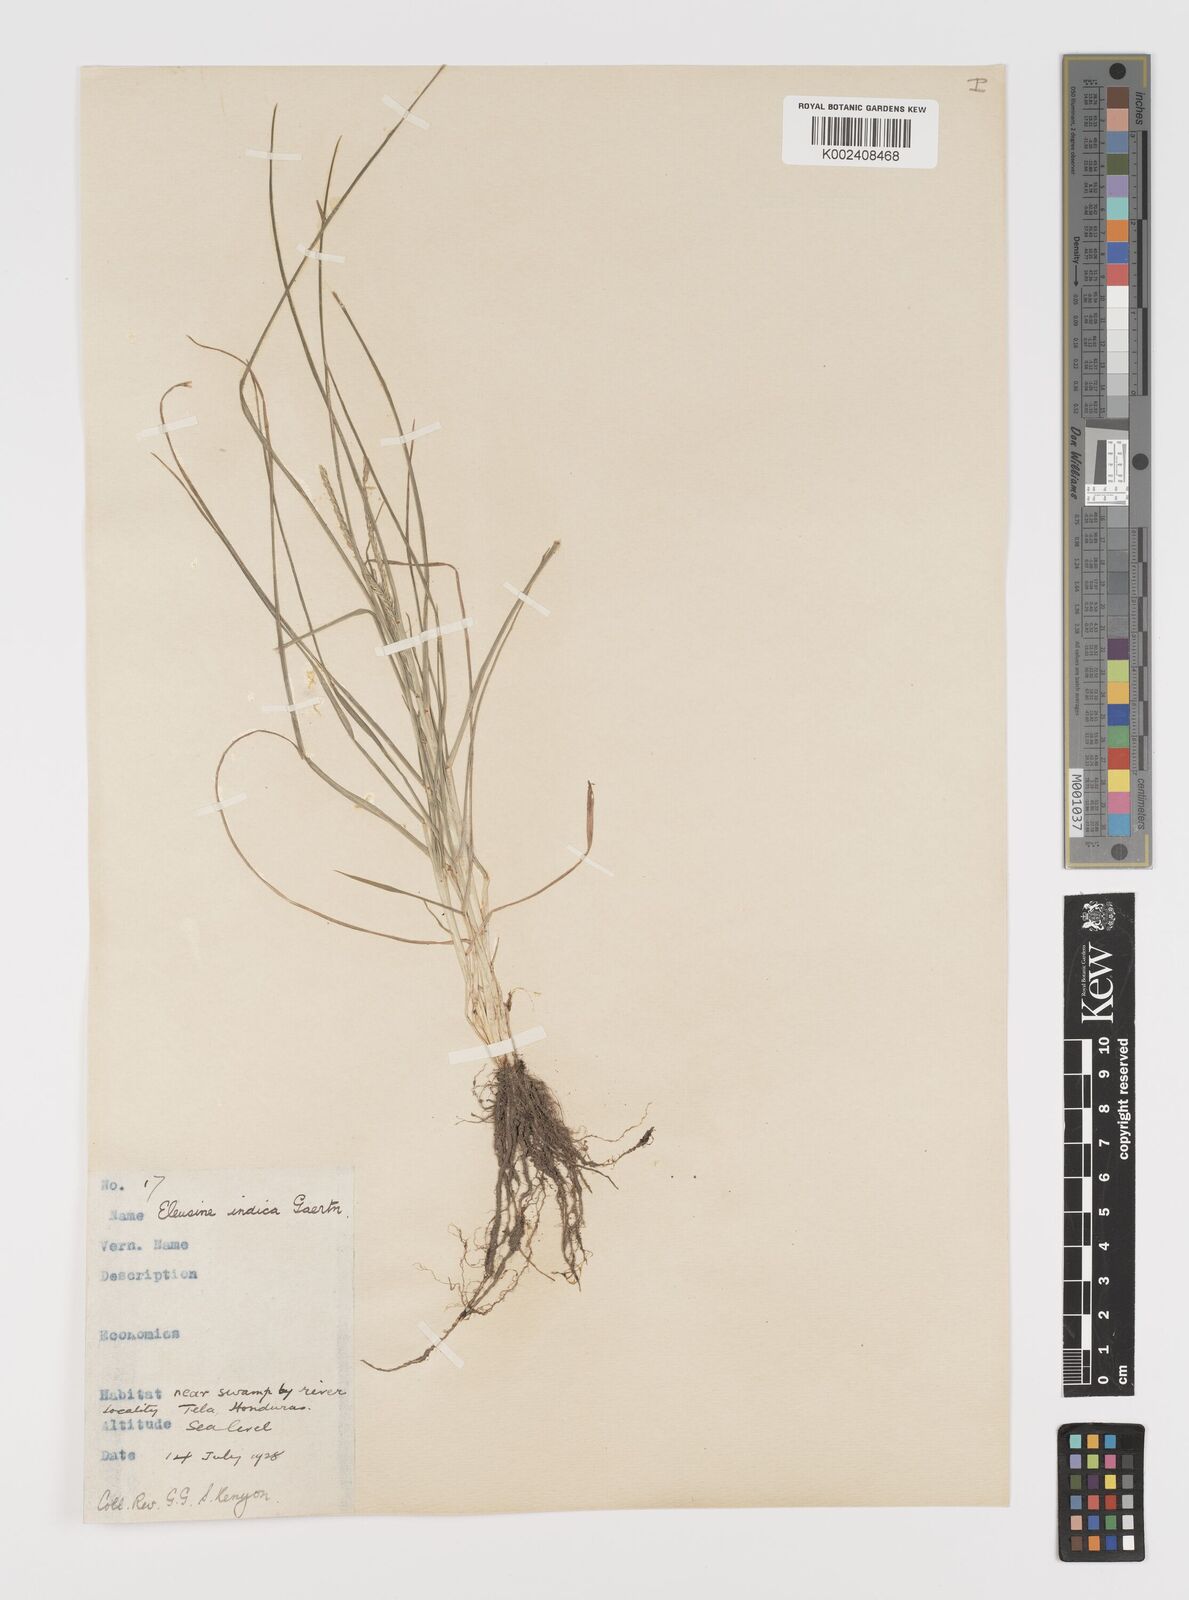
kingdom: Plantae
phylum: Tracheophyta
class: Liliopsida
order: Poales
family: Poaceae
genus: Eleusine
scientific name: Eleusine indica
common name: Yard-grass
